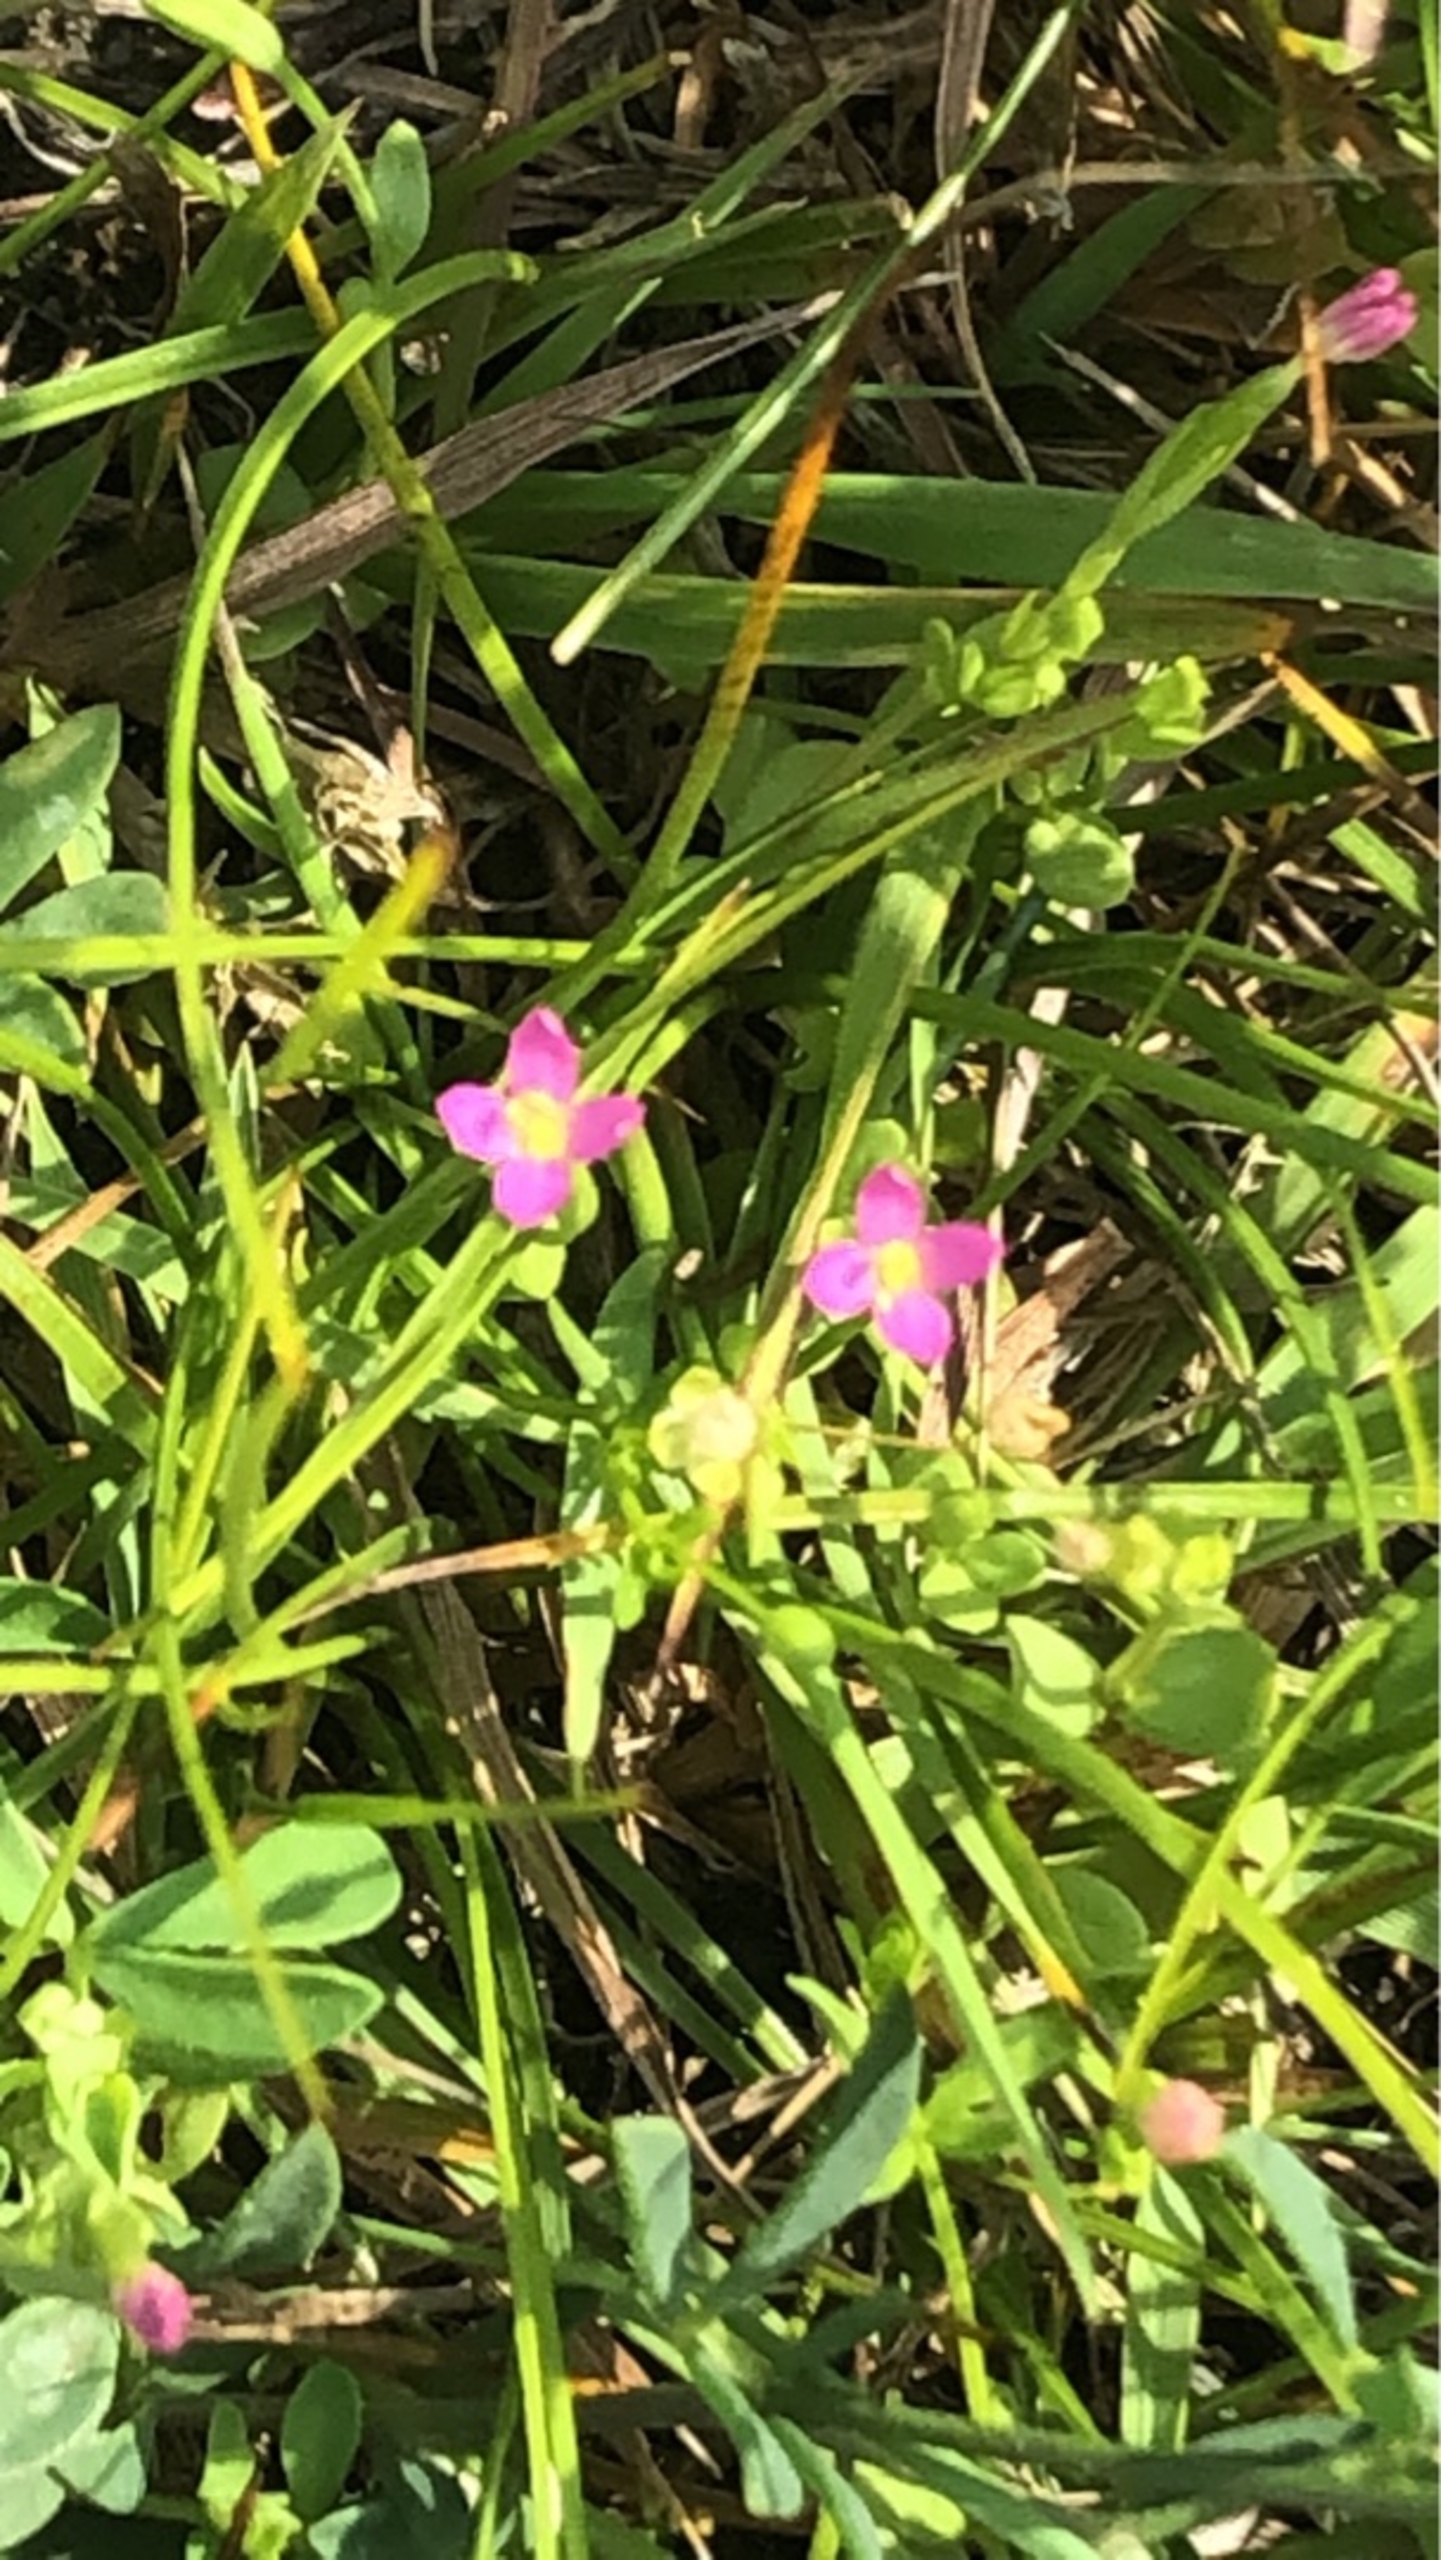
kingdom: Plantae
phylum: Tracheophyta
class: Magnoliopsida
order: Gentianales
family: Gentianaceae
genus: Centaurium
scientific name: Centaurium pulchellum
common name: Liden tusindgylden
